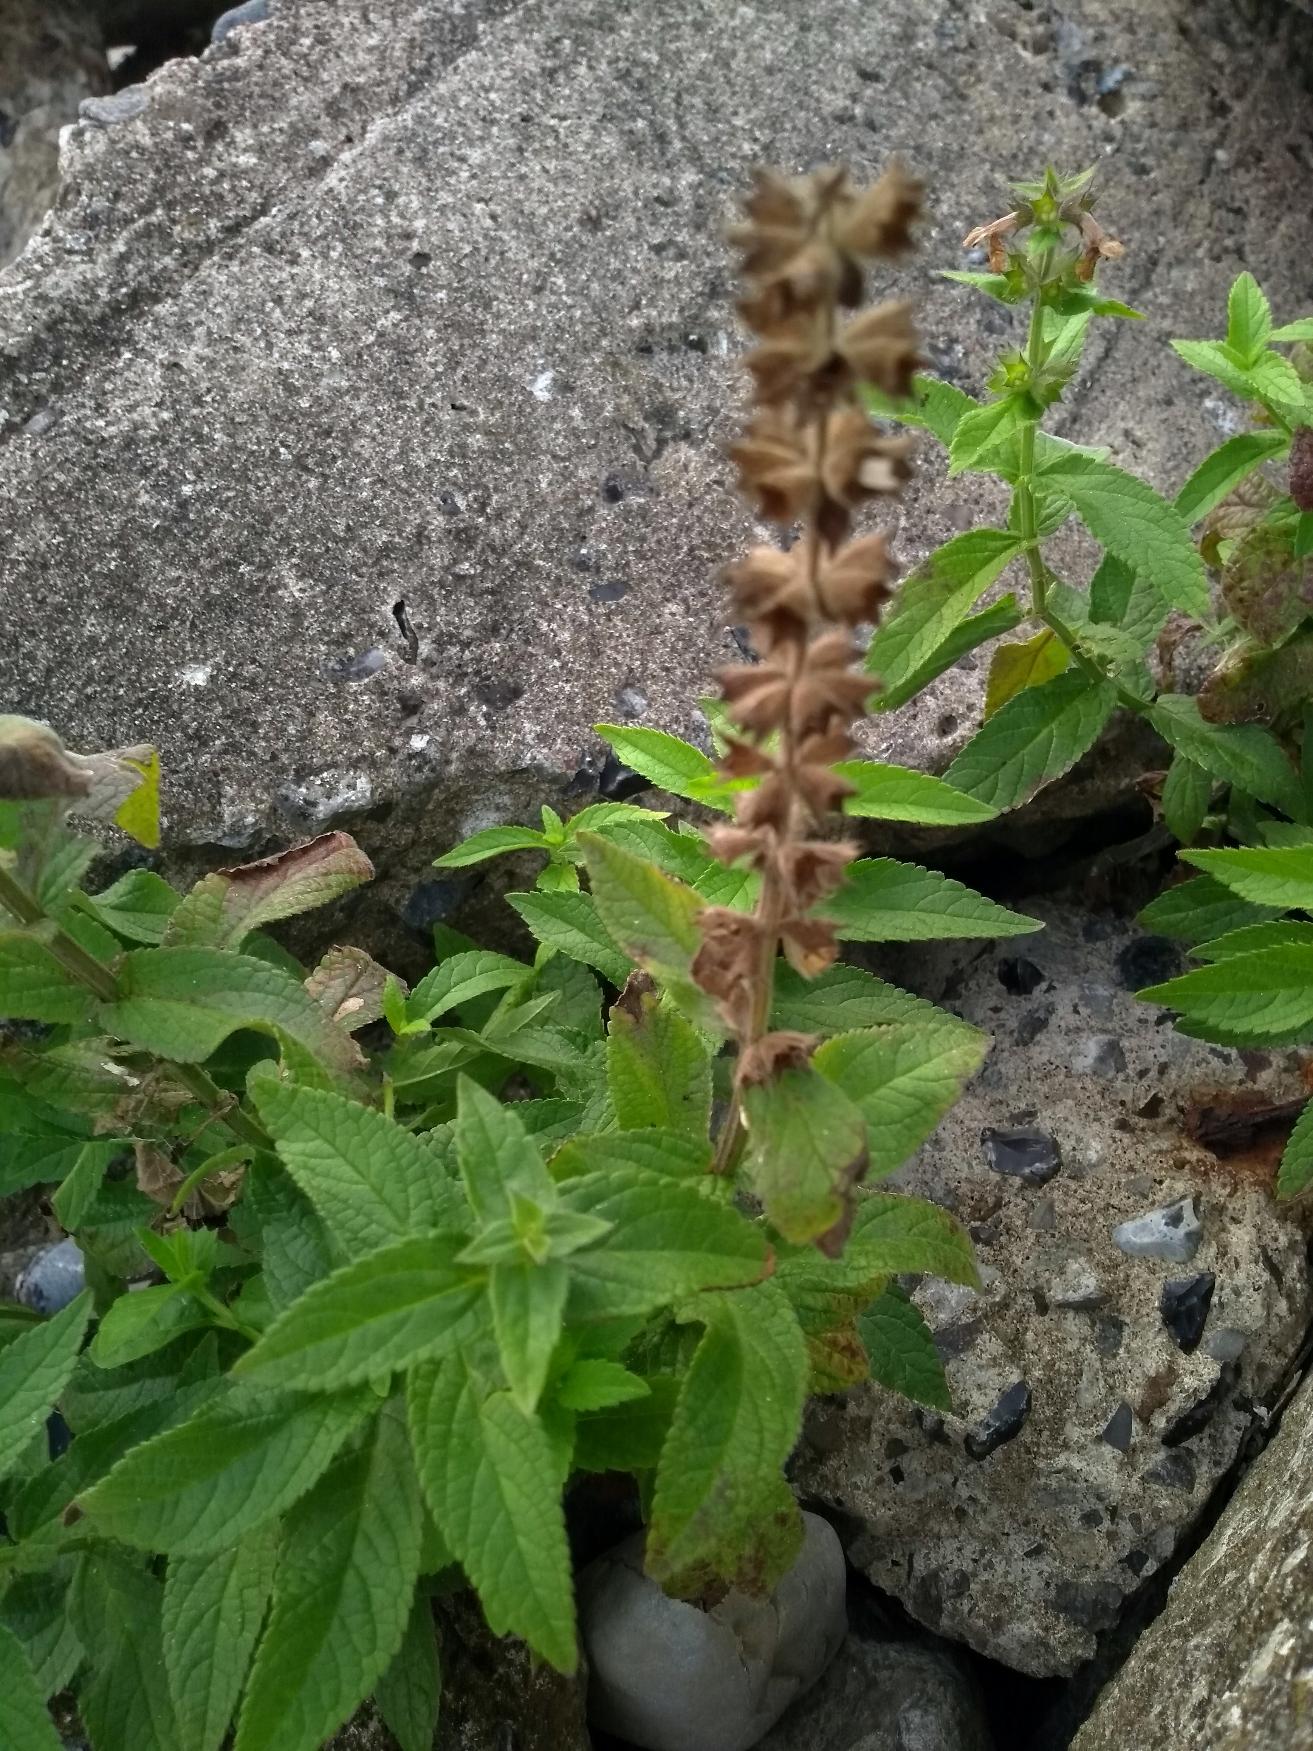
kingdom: Plantae
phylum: Tracheophyta
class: Magnoliopsida
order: Lamiales
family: Lamiaceae
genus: Stachys
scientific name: Stachys palustris
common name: Kær-galtetand
